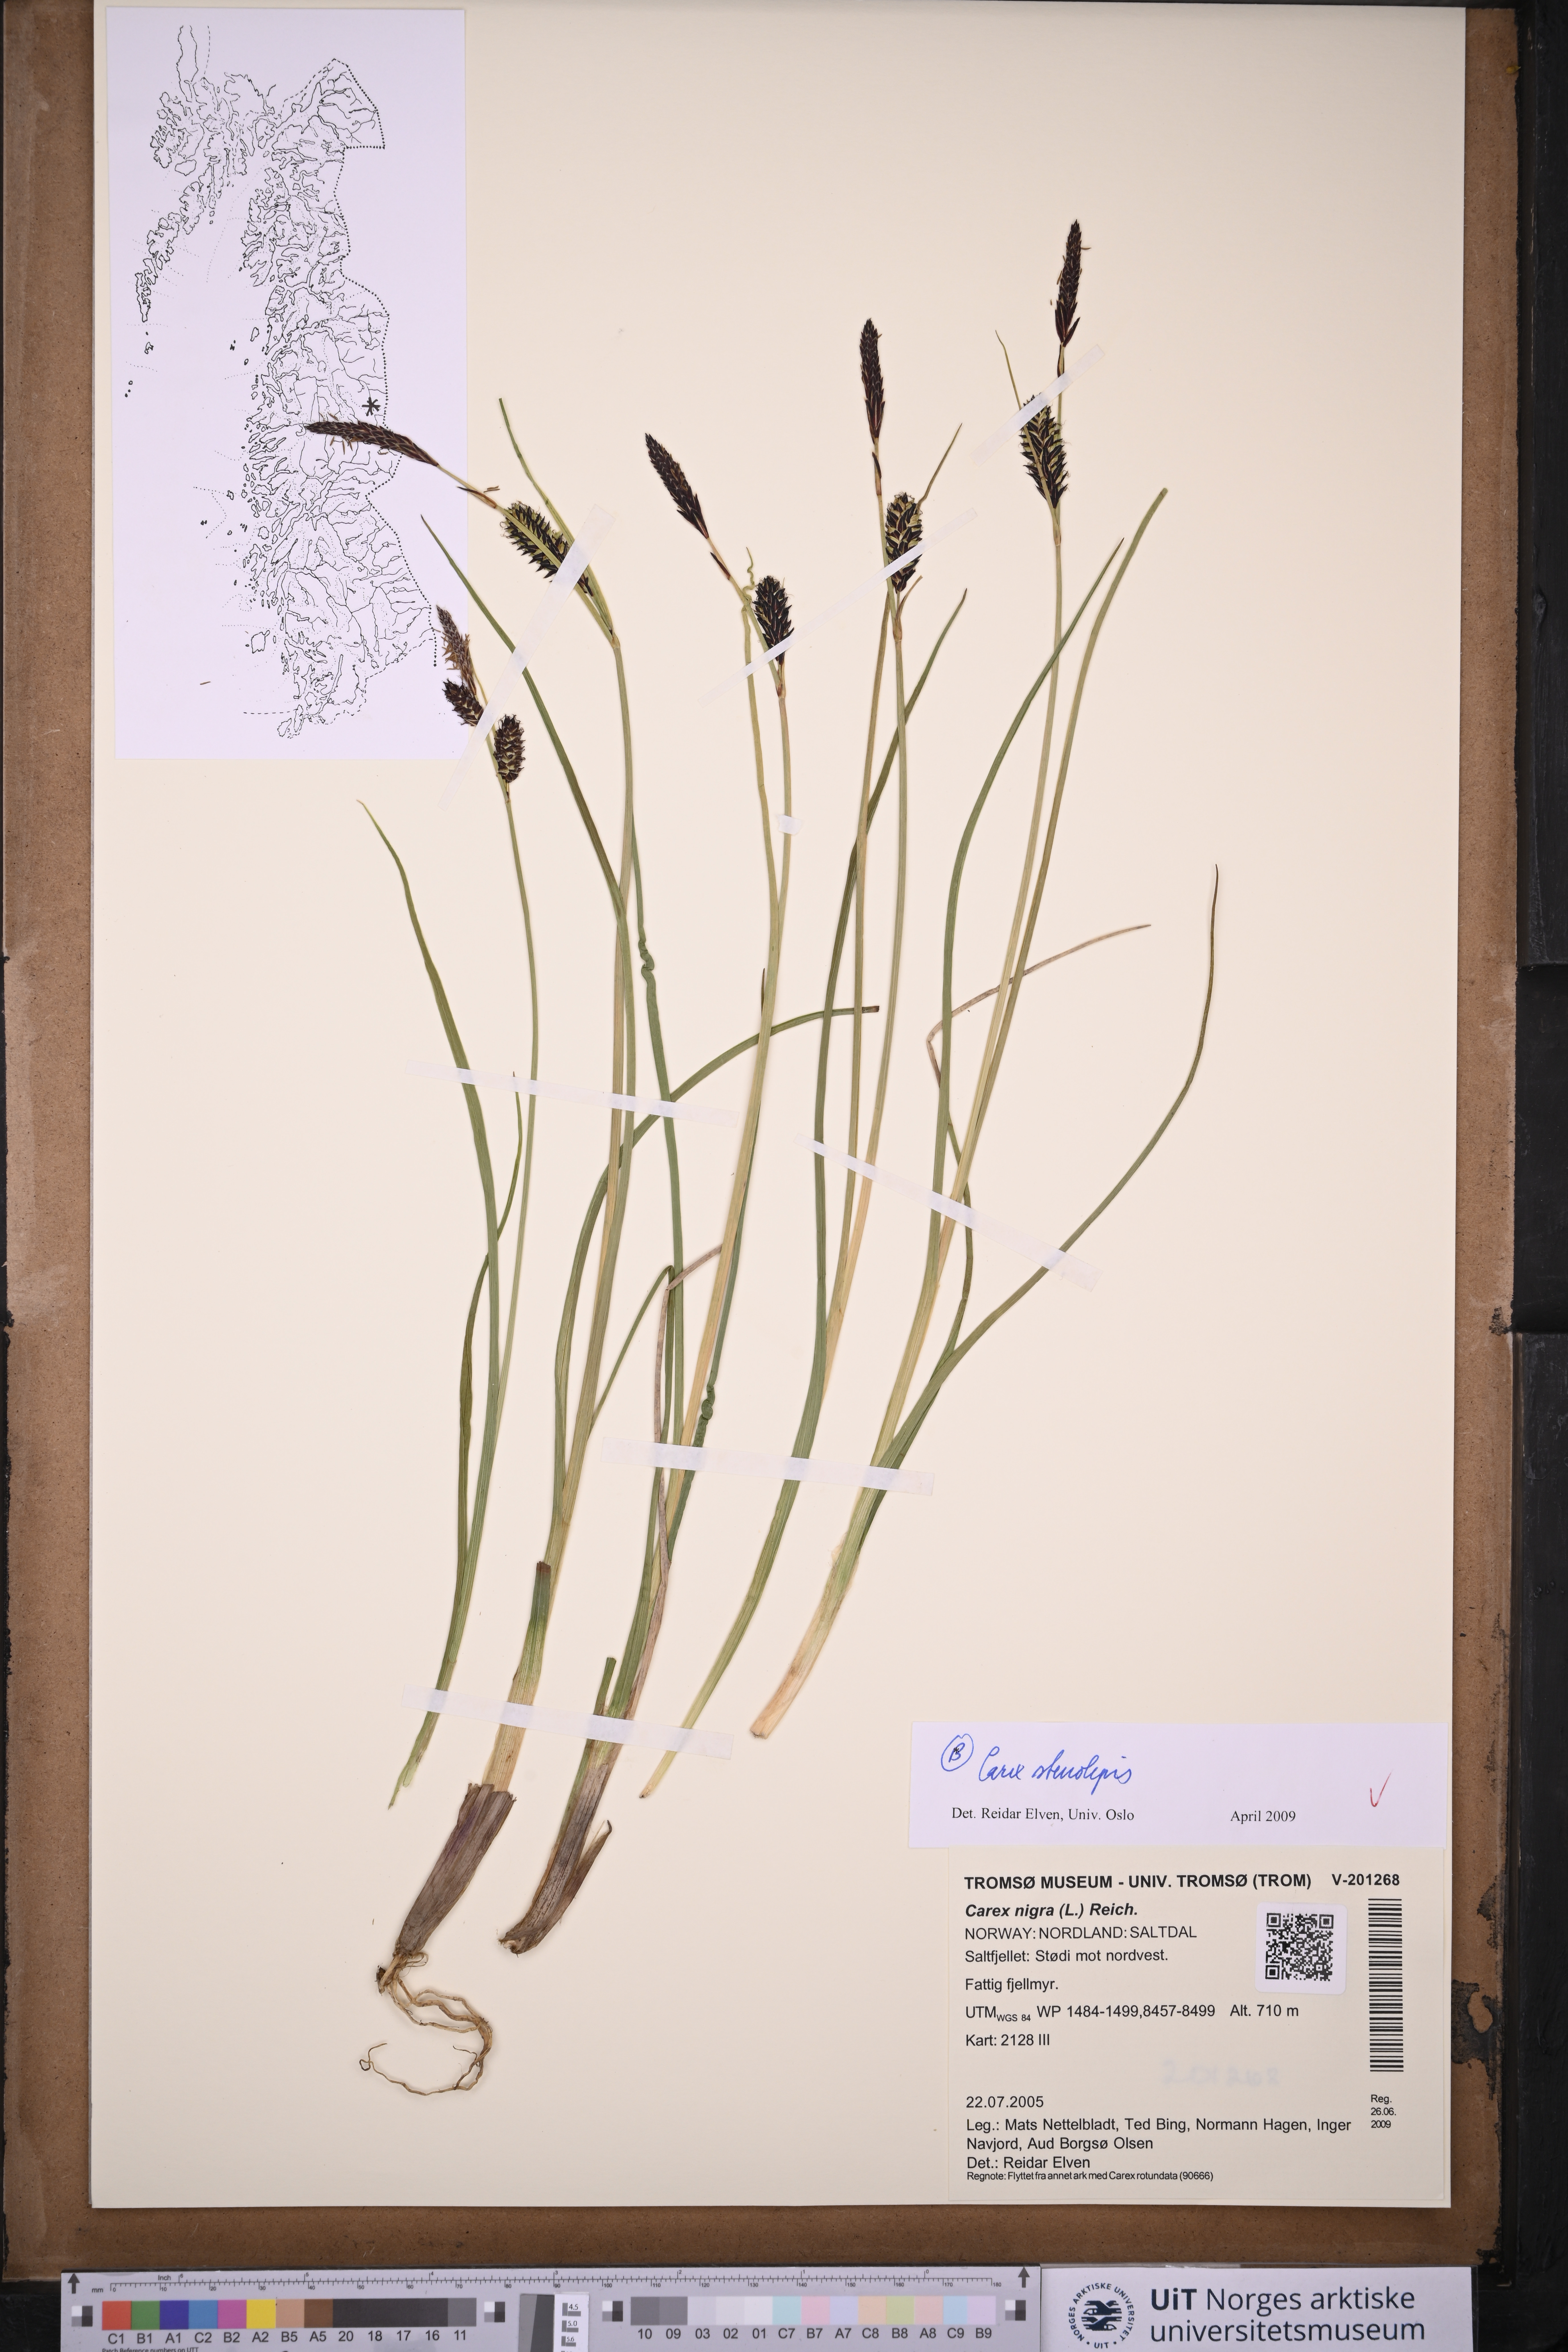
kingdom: Plantae
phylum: Tracheophyta
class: Liliopsida
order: Poales
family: Cyperaceae
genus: Carex
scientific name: Carex grahamii
